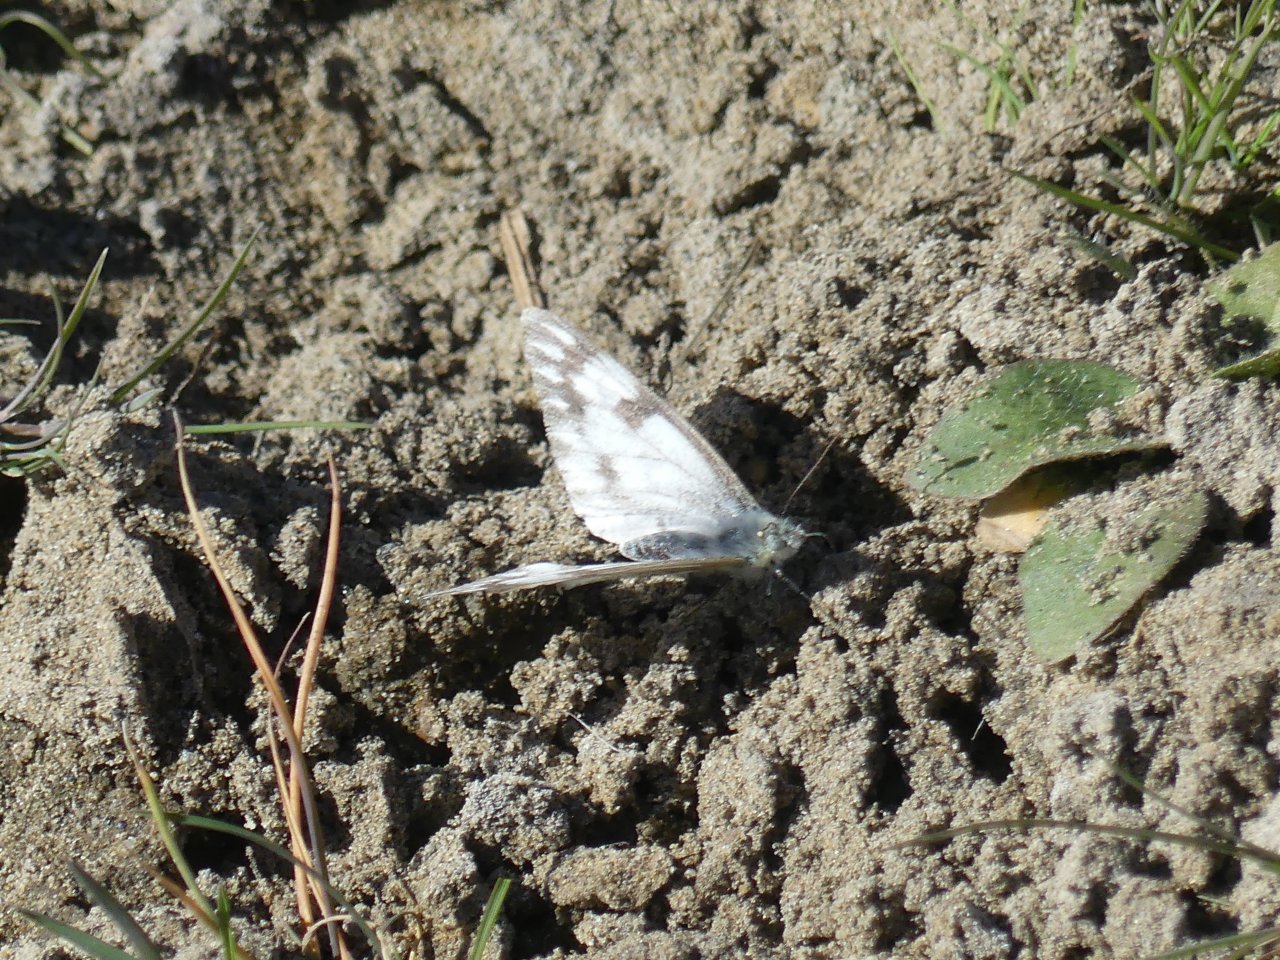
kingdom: Animalia
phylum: Arthropoda
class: Insecta
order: Lepidoptera
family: Pieridae
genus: Pontia
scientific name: Pontia occidentalis
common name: Western White
